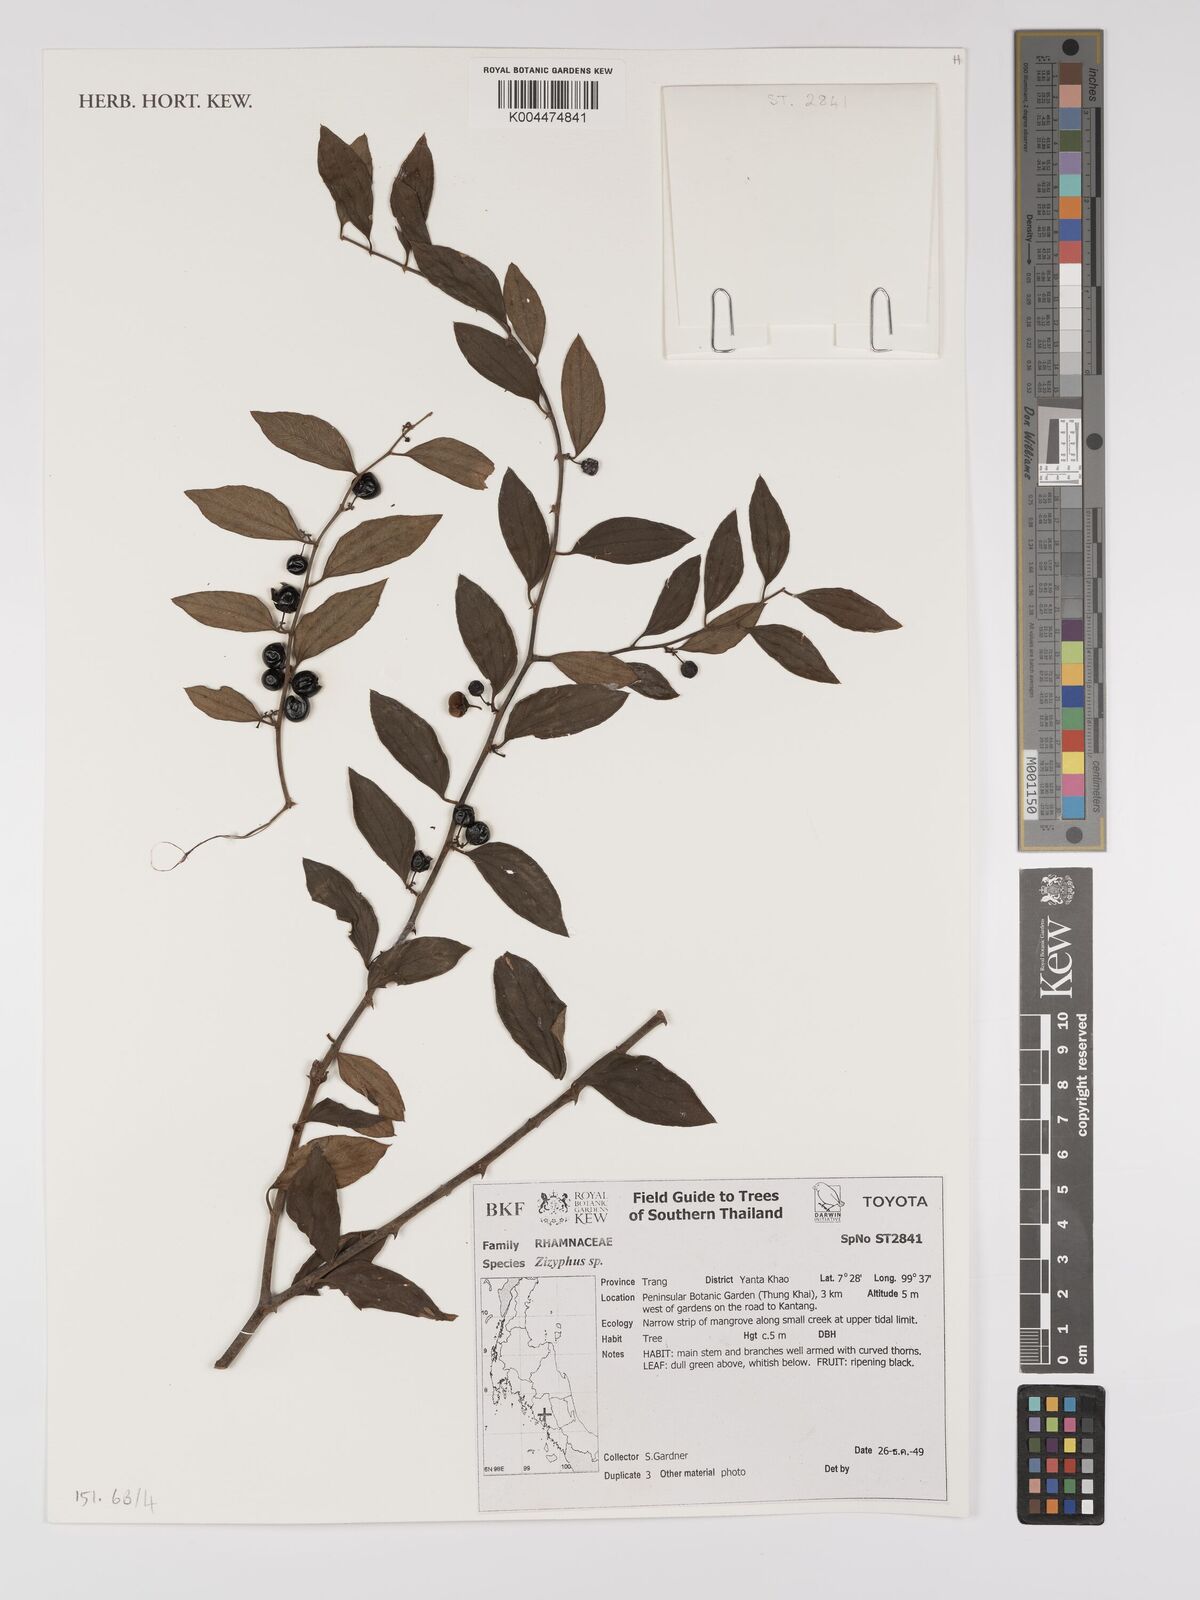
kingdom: Plantae
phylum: Tracheophyta
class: Magnoliopsida
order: Rosales
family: Rhamnaceae
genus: Ziziphus
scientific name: Ziziphus oenopolia
